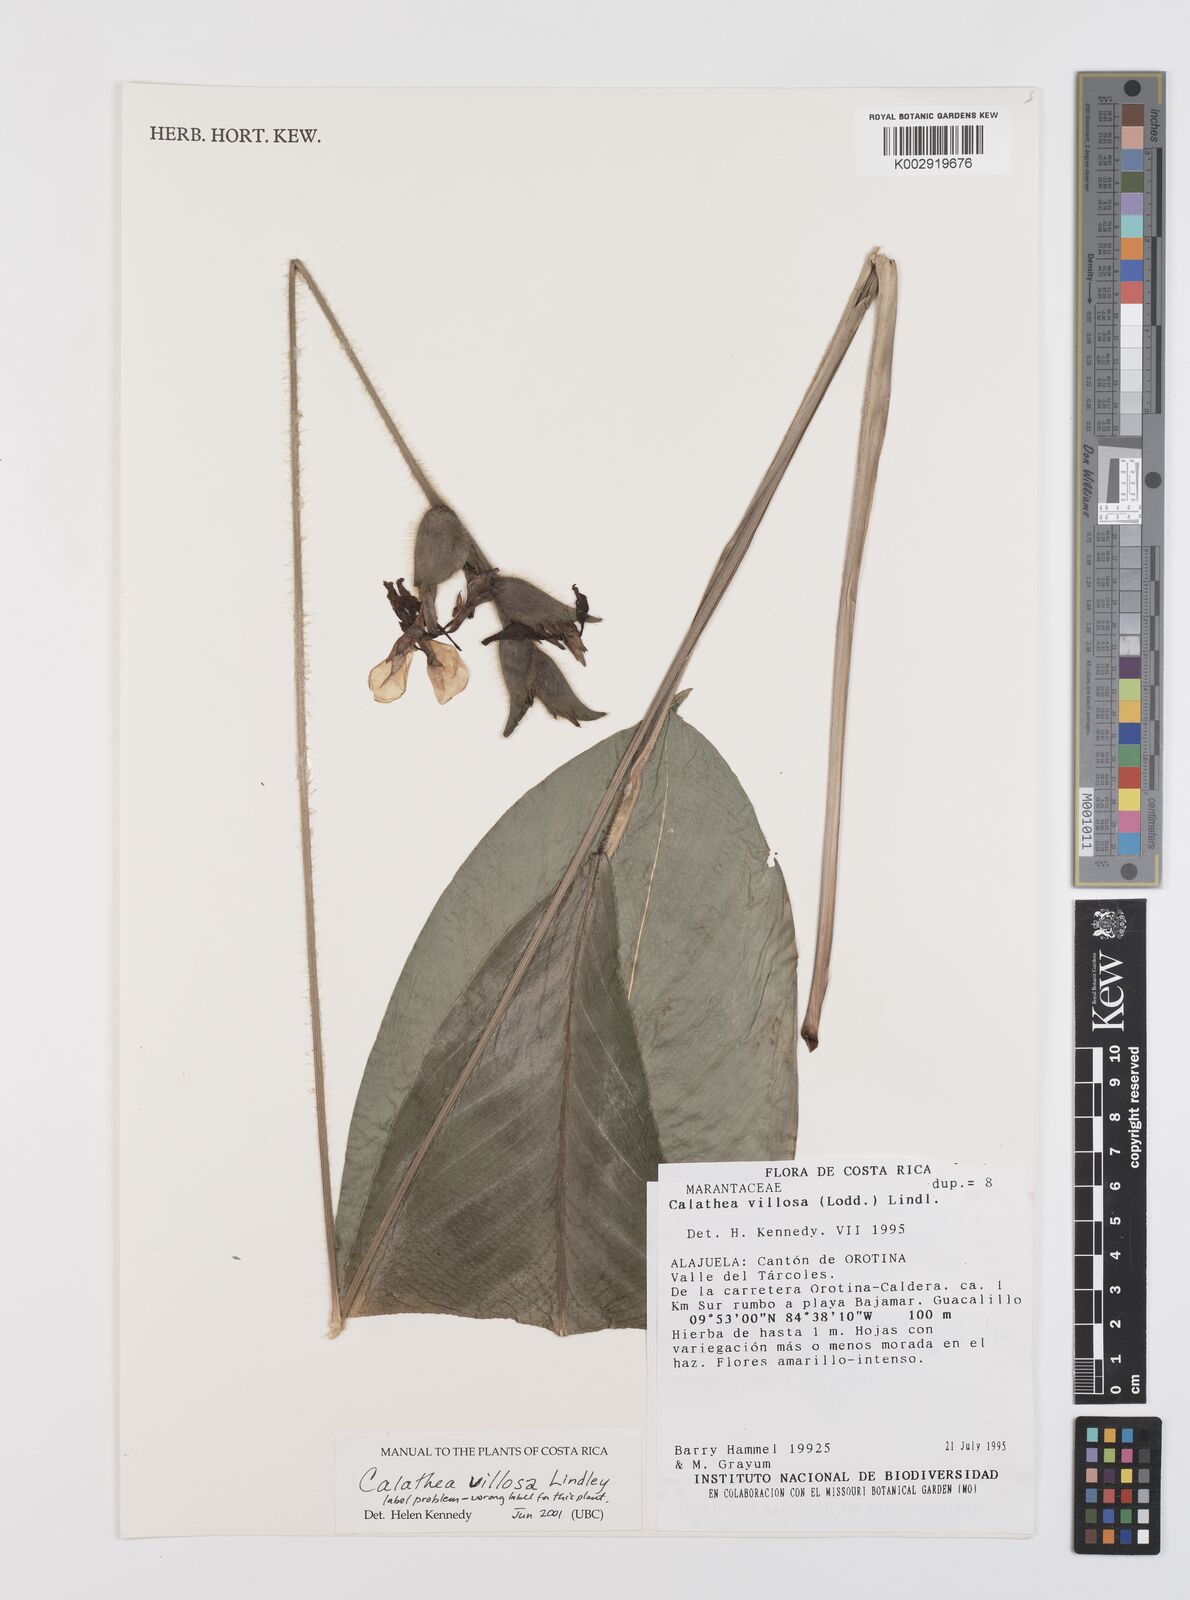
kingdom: Plantae
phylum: Tracheophyta
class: Liliopsida
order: Zingiberales
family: Marantaceae
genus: Goeppertia
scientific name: Goeppertia villosa
